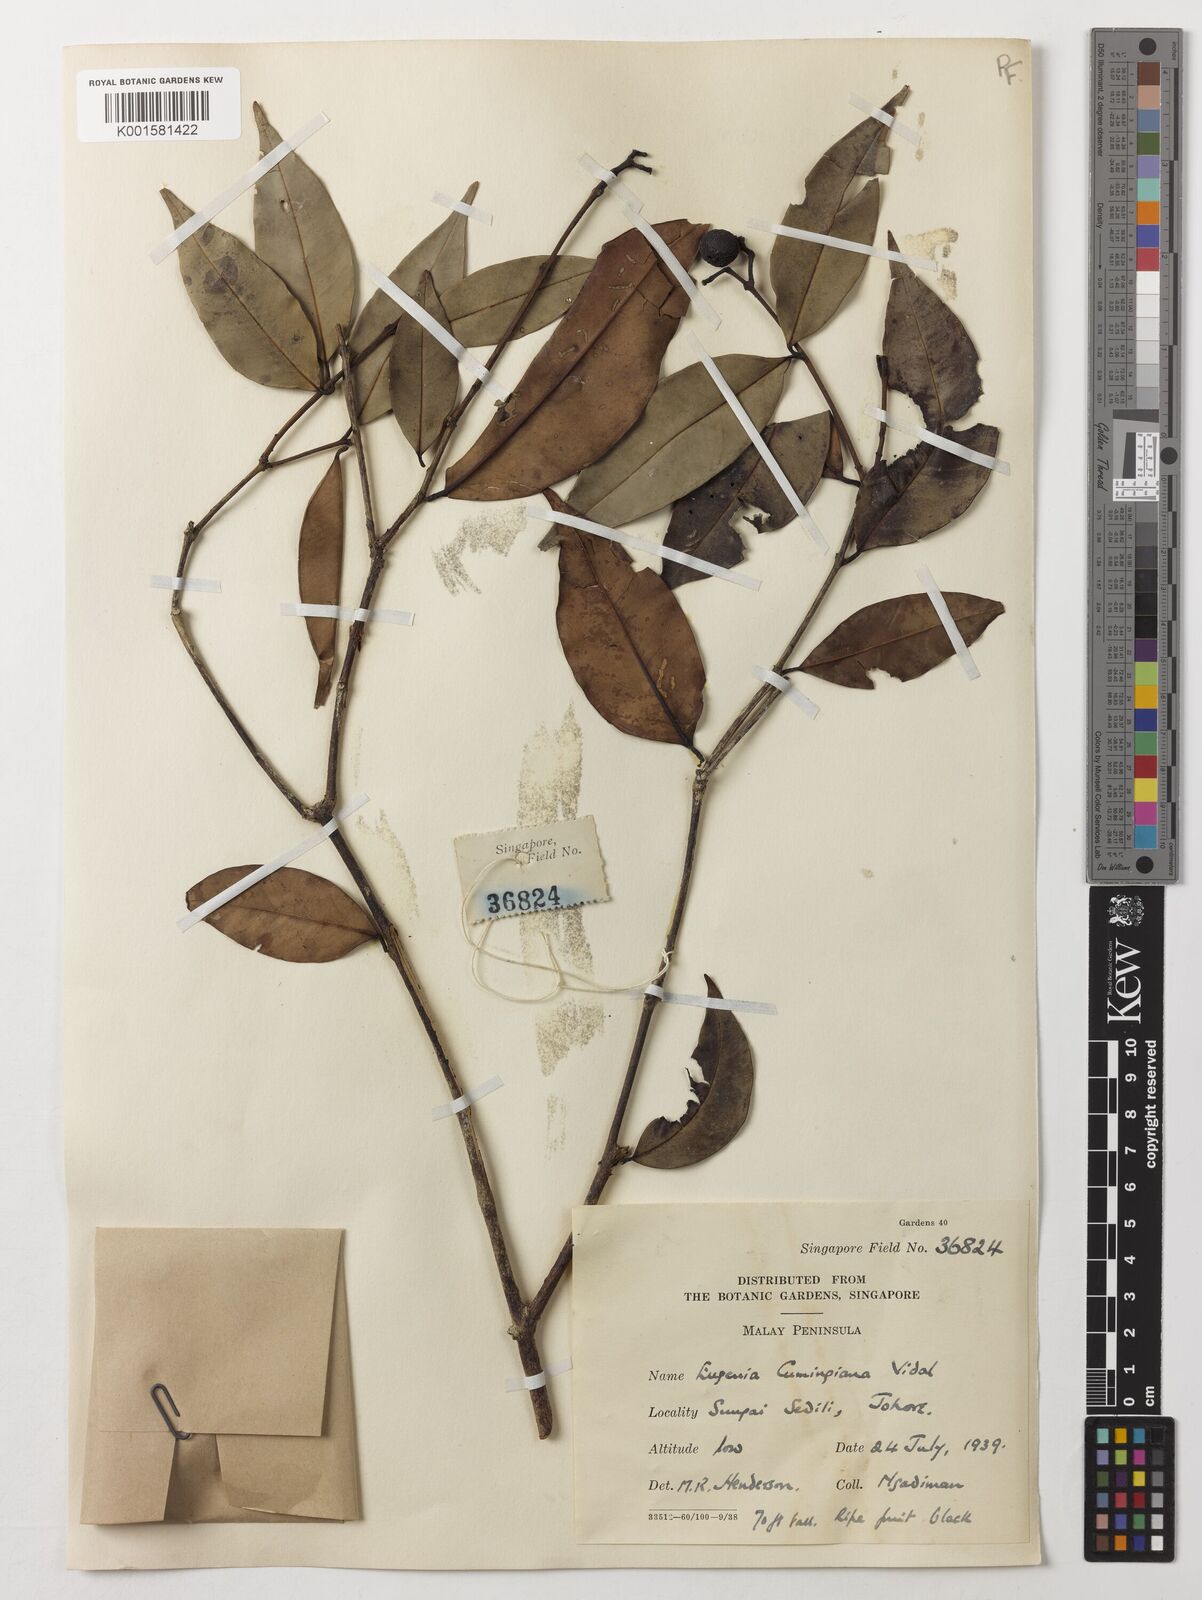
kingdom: Plantae
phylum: Tracheophyta
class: Magnoliopsida
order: Myrtales
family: Myrtaceae
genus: Syzygium
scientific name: Syzygium acuminatissimum
